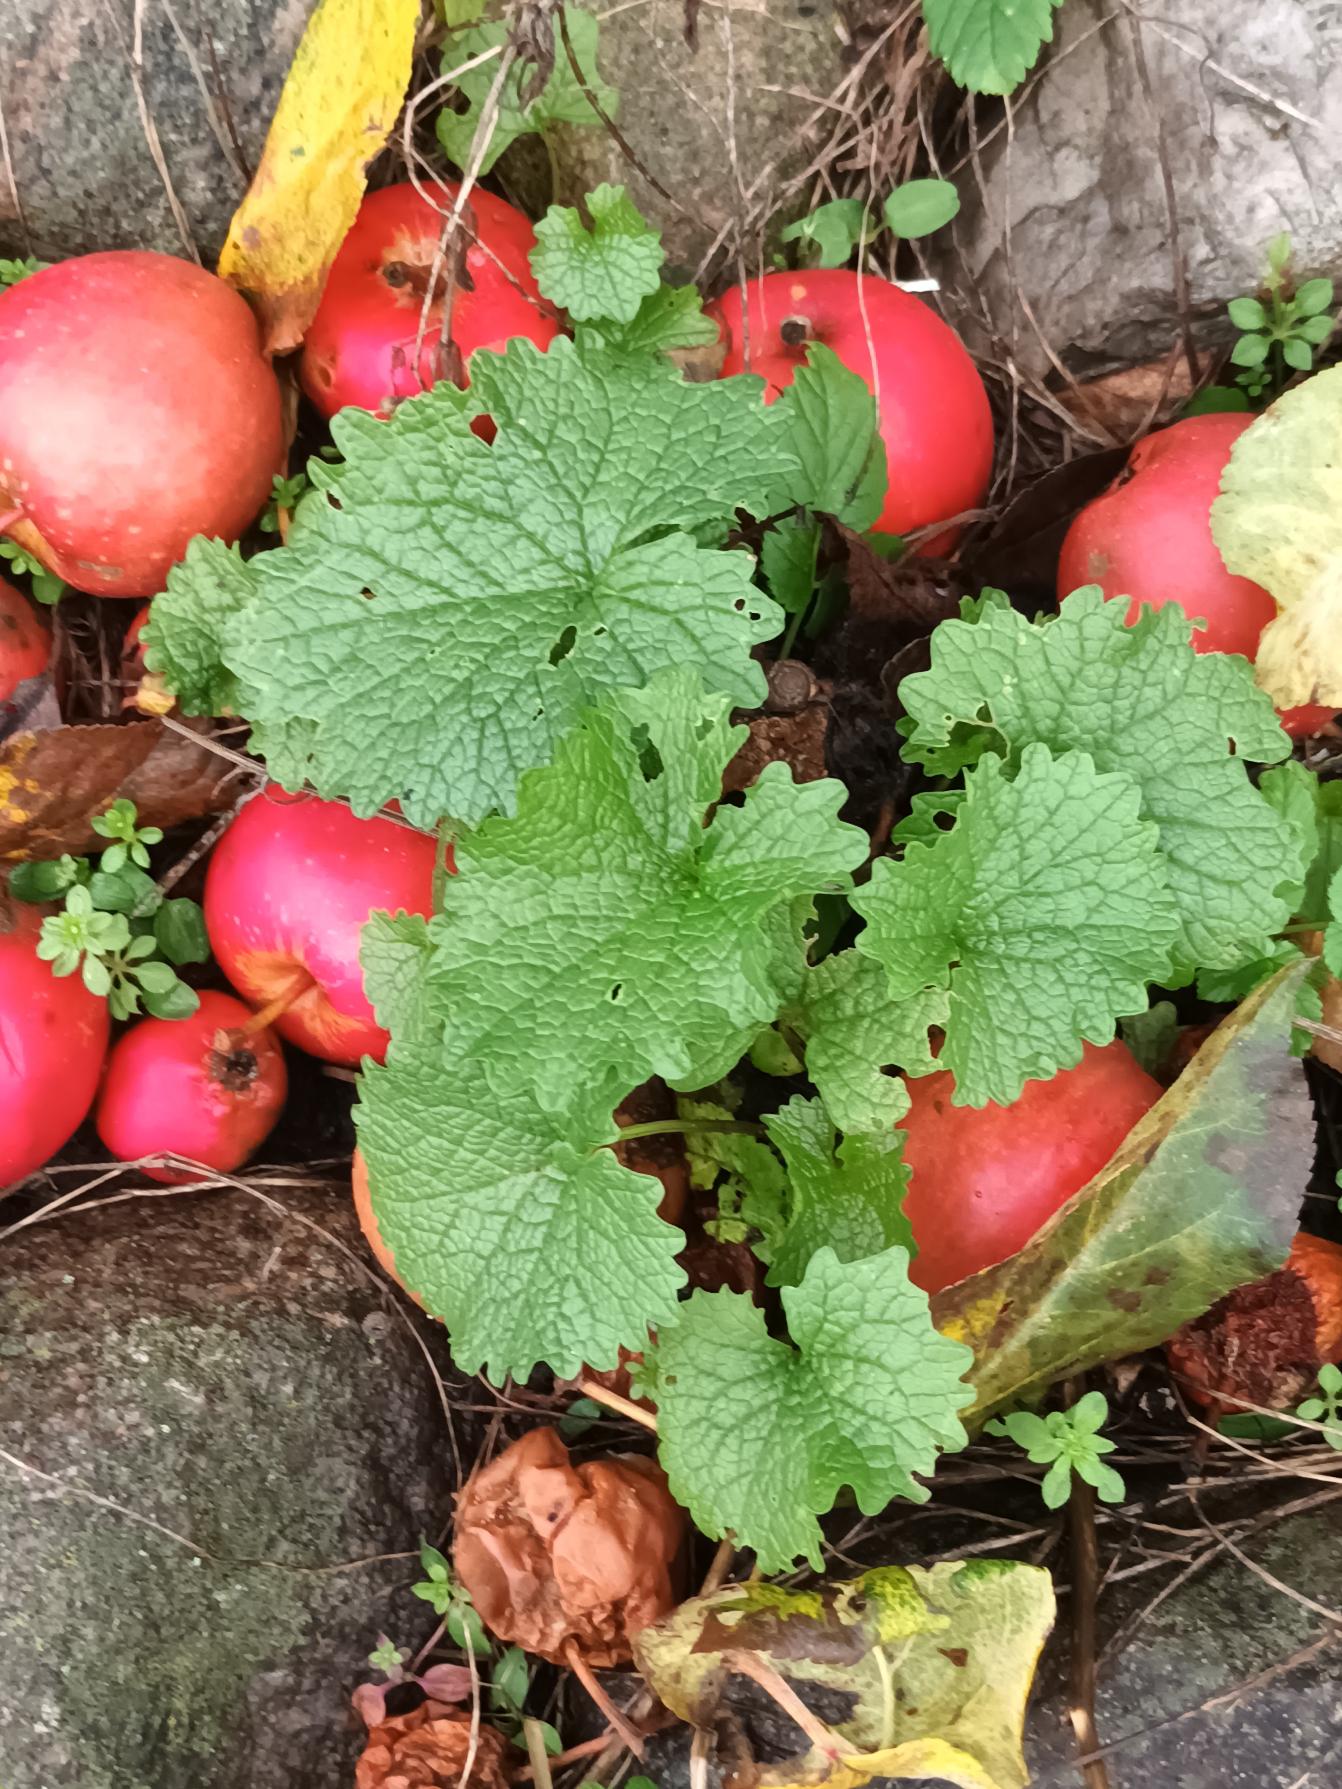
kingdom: Plantae
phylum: Tracheophyta
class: Magnoliopsida
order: Brassicales
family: Brassicaceae
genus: Alliaria
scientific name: Alliaria petiolata
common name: Løgkarse
